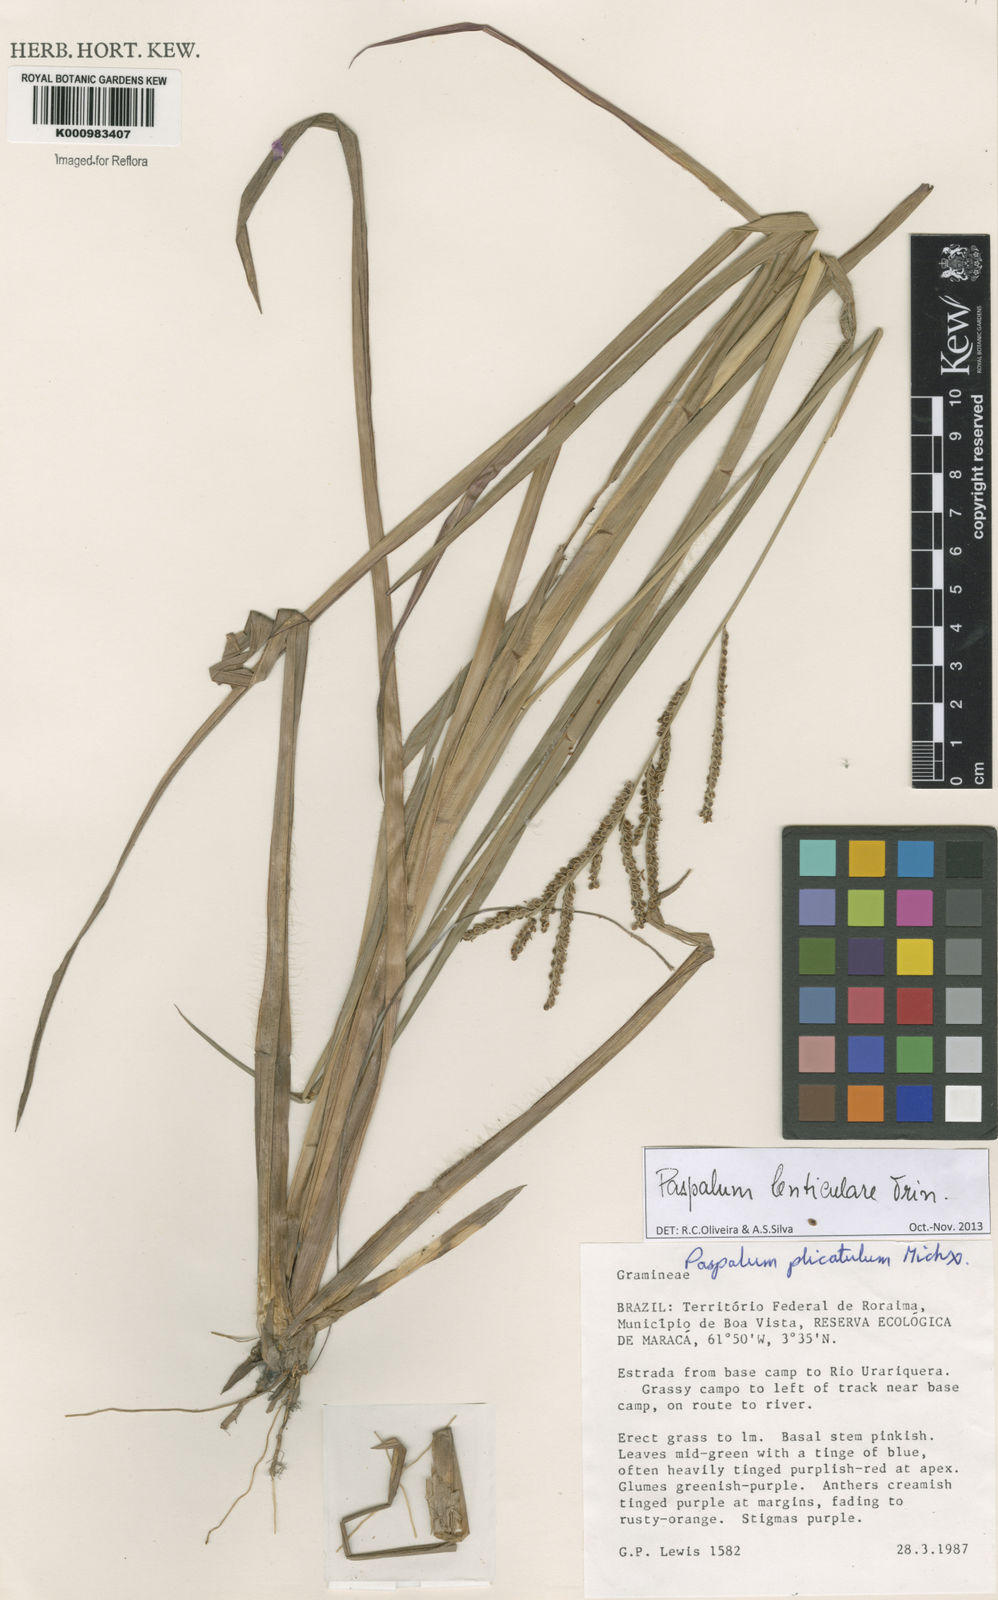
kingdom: Plantae
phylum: Tracheophyta
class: Liliopsida
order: Poales
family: Poaceae
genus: Paspalum
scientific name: Paspalum plicatulum
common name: Top paspalum
